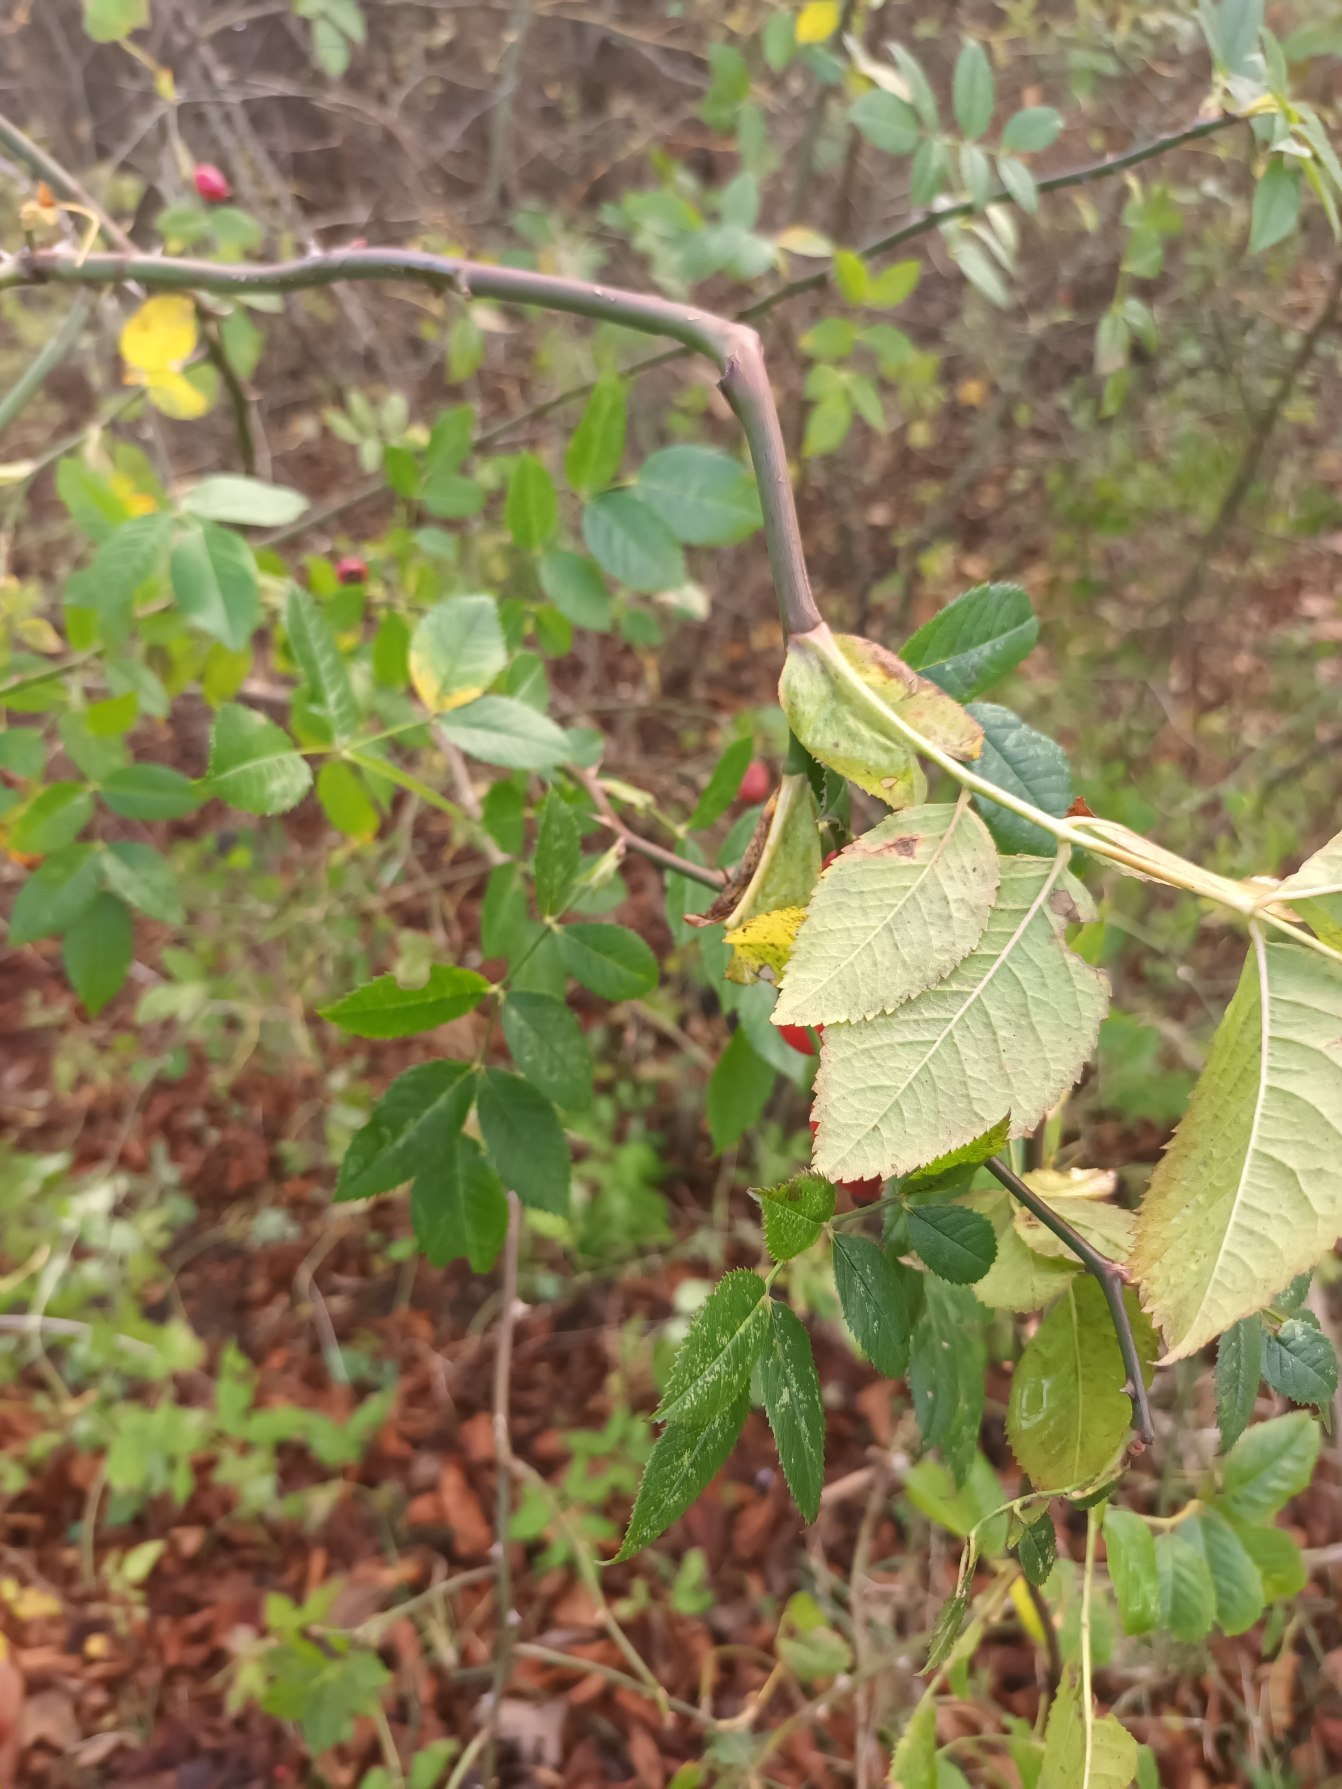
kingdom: Plantae
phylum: Tracheophyta
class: Magnoliopsida
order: Rosales
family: Rosaceae
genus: Rosa
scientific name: Rosa canina
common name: Glat hunde-rose
